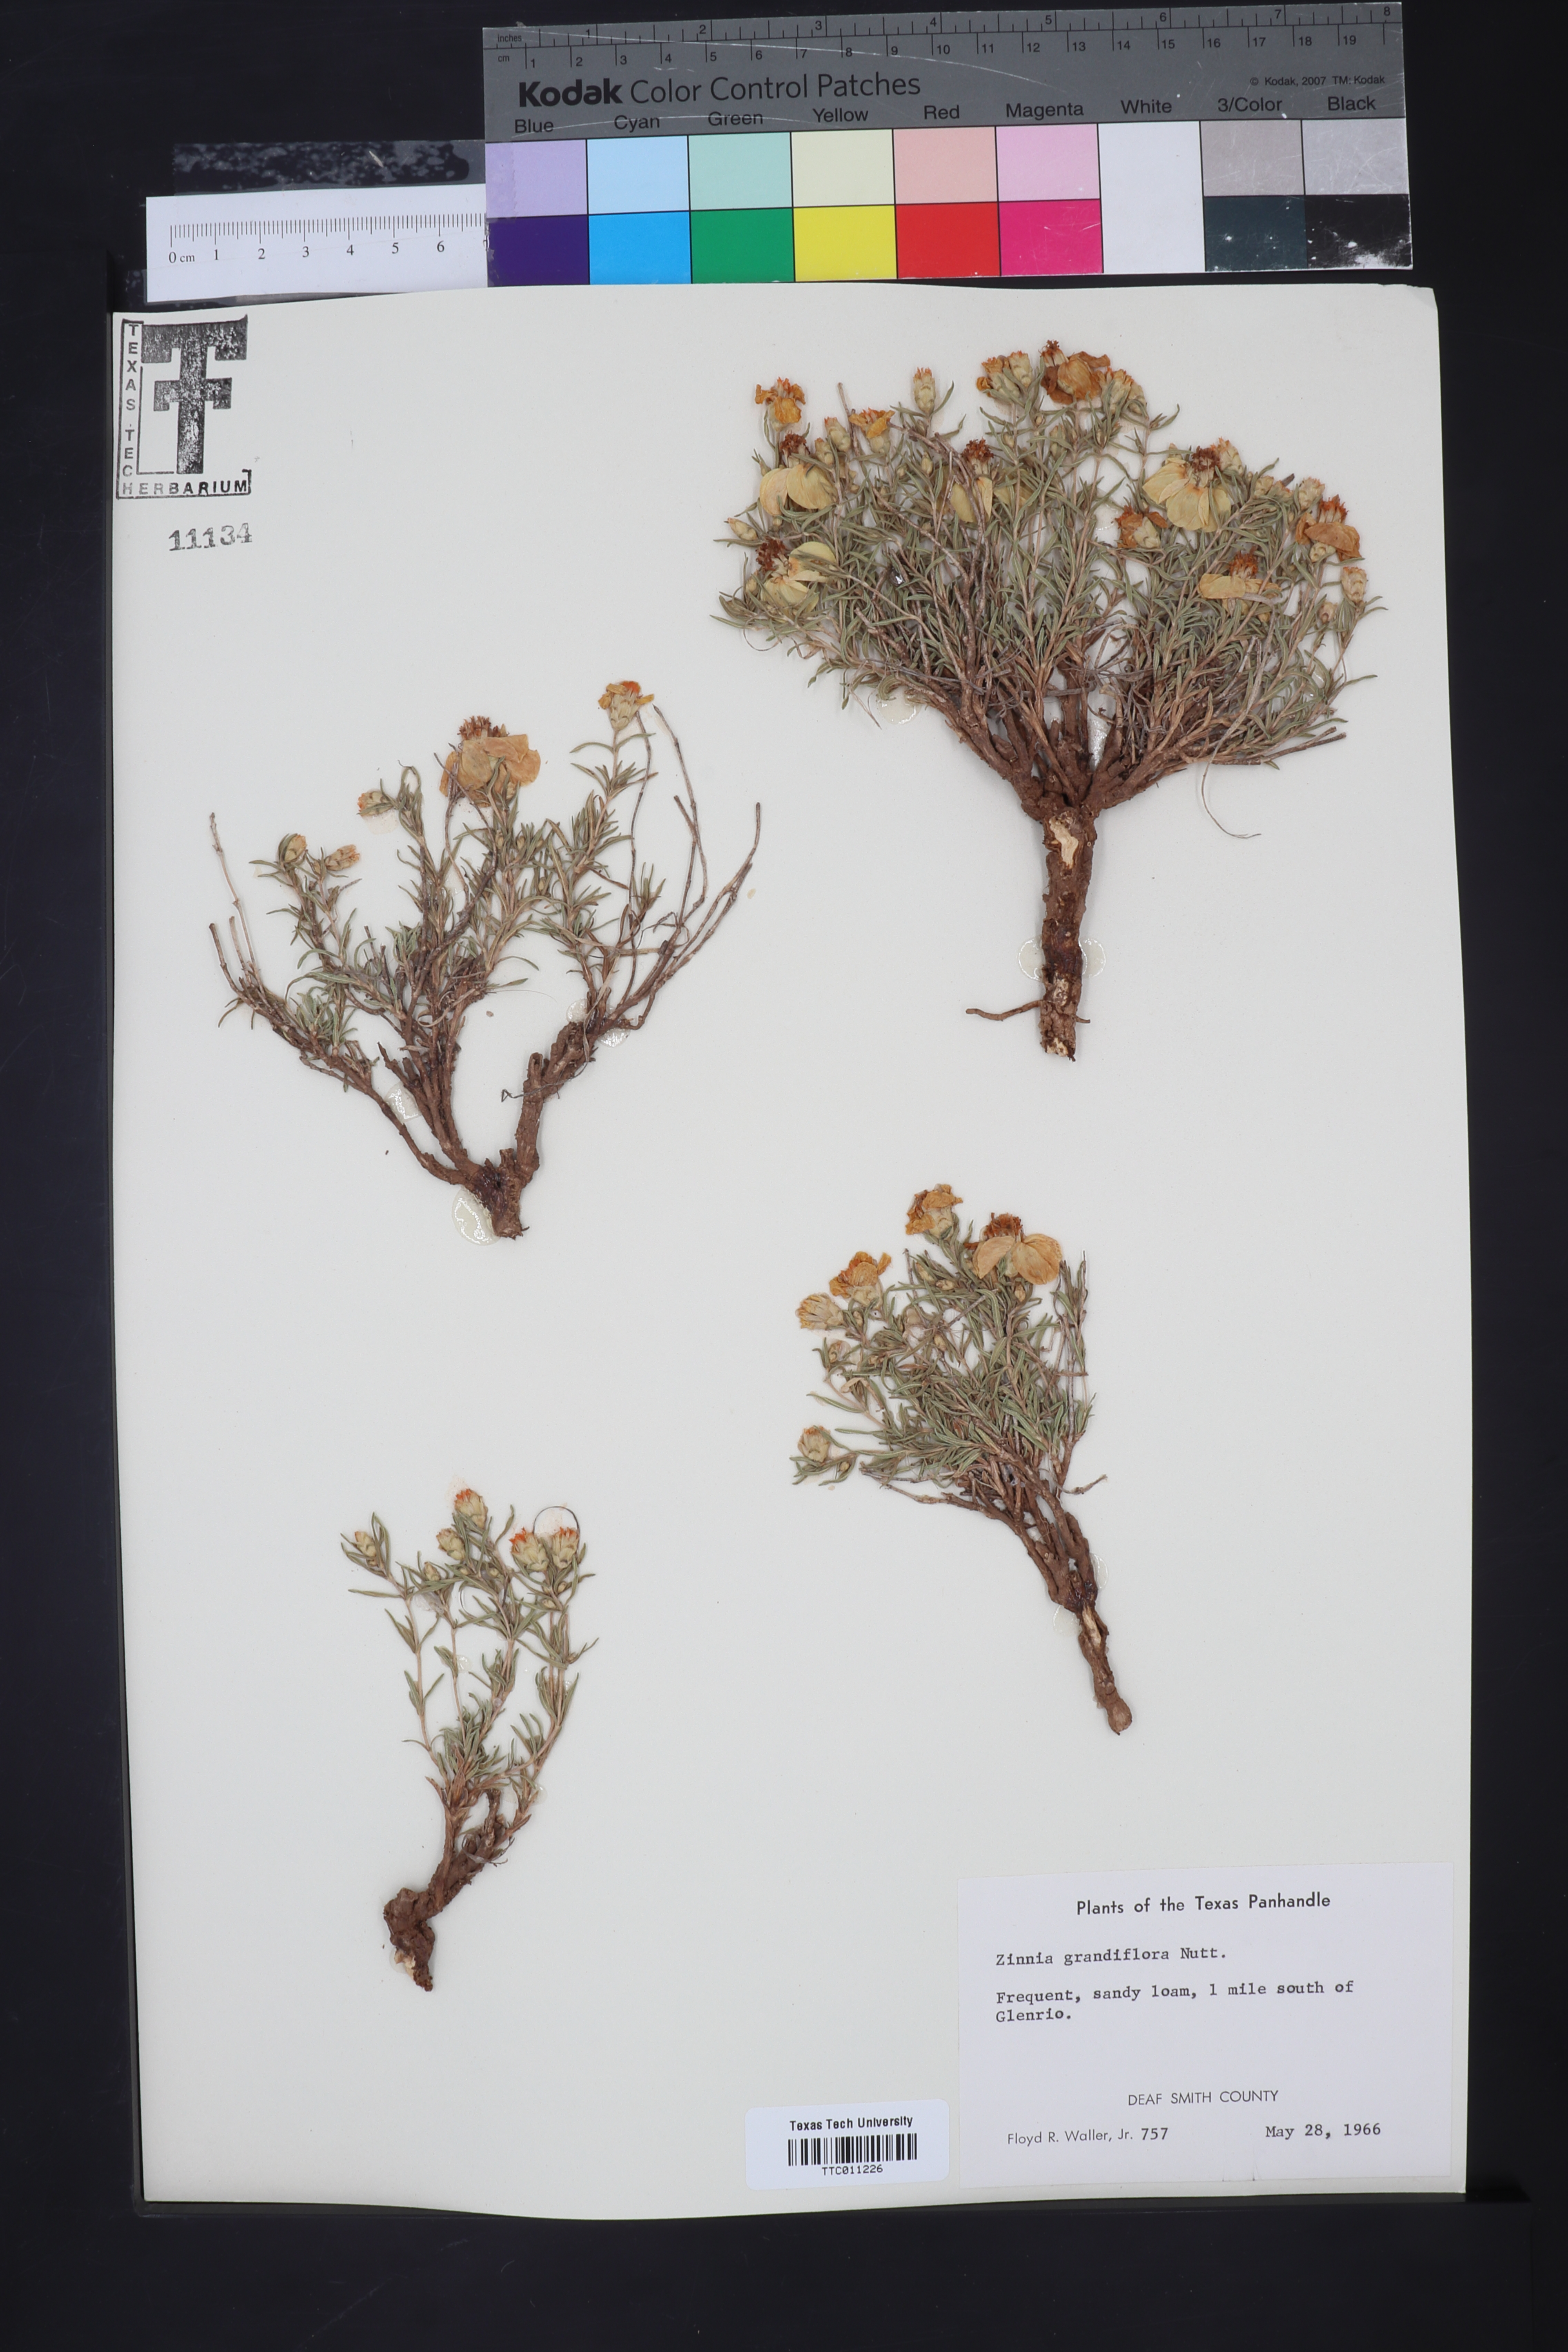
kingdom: Plantae
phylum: Tracheophyta
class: Magnoliopsida
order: Asterales
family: Asteraceae
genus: Zinnia
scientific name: Zinnia grandiflora
